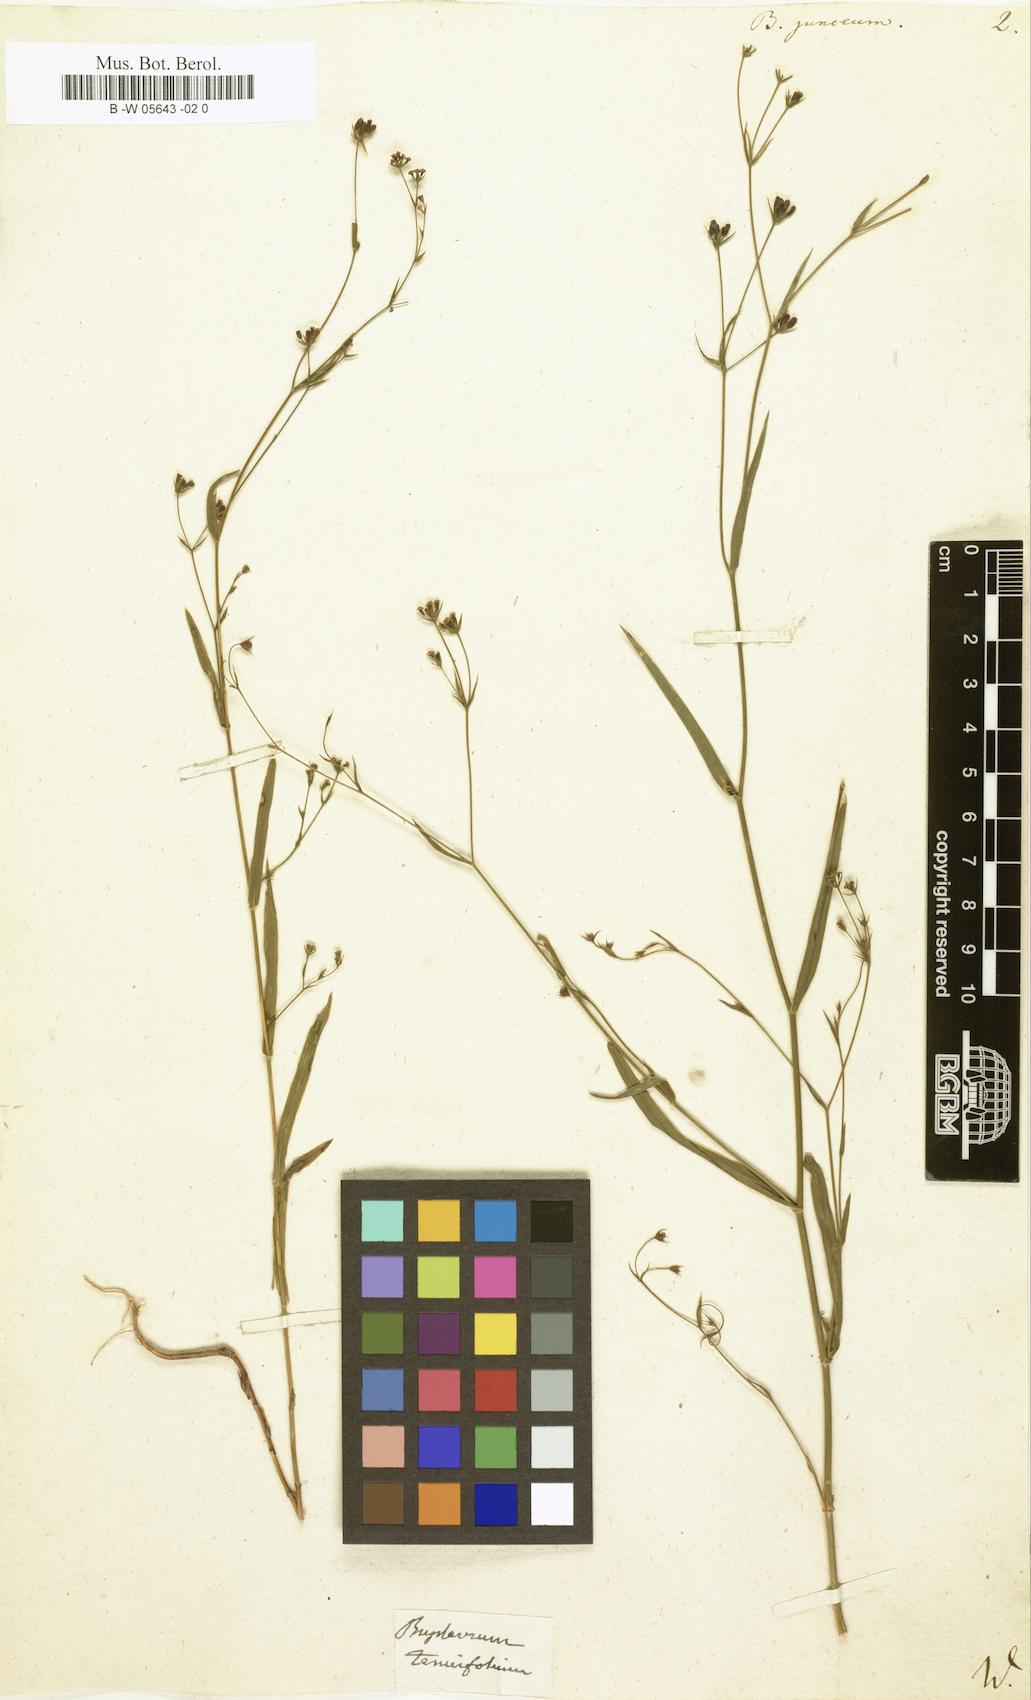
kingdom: Plantae
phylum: Tracheophyta
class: Magnoliopsida
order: Apiales
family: Apiaceae
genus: Bupleurum
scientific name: Bupleurum praealtum
